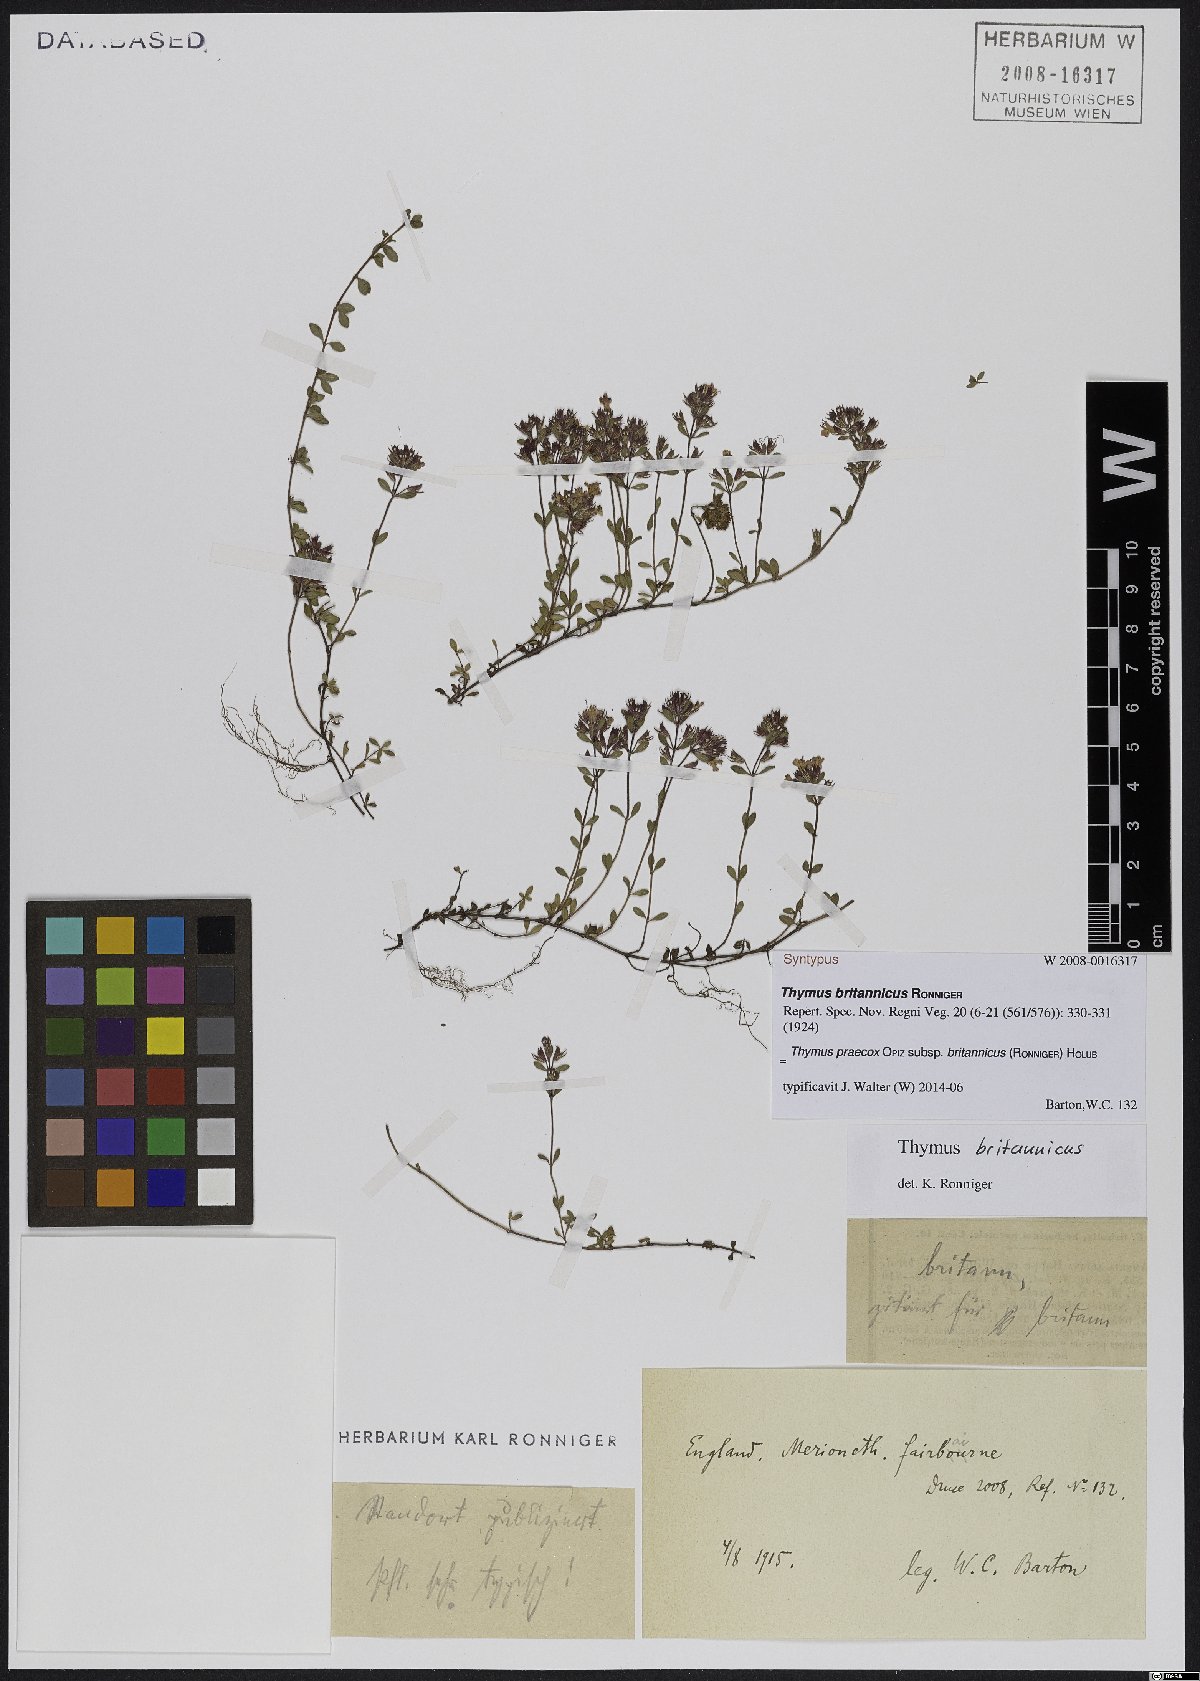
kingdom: Plantae
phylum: Tracheophyta
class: Magnoliopsida
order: Lamiales
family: Lamiaceae
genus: Thymus
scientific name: Thymus praecox
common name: Wild thyme
